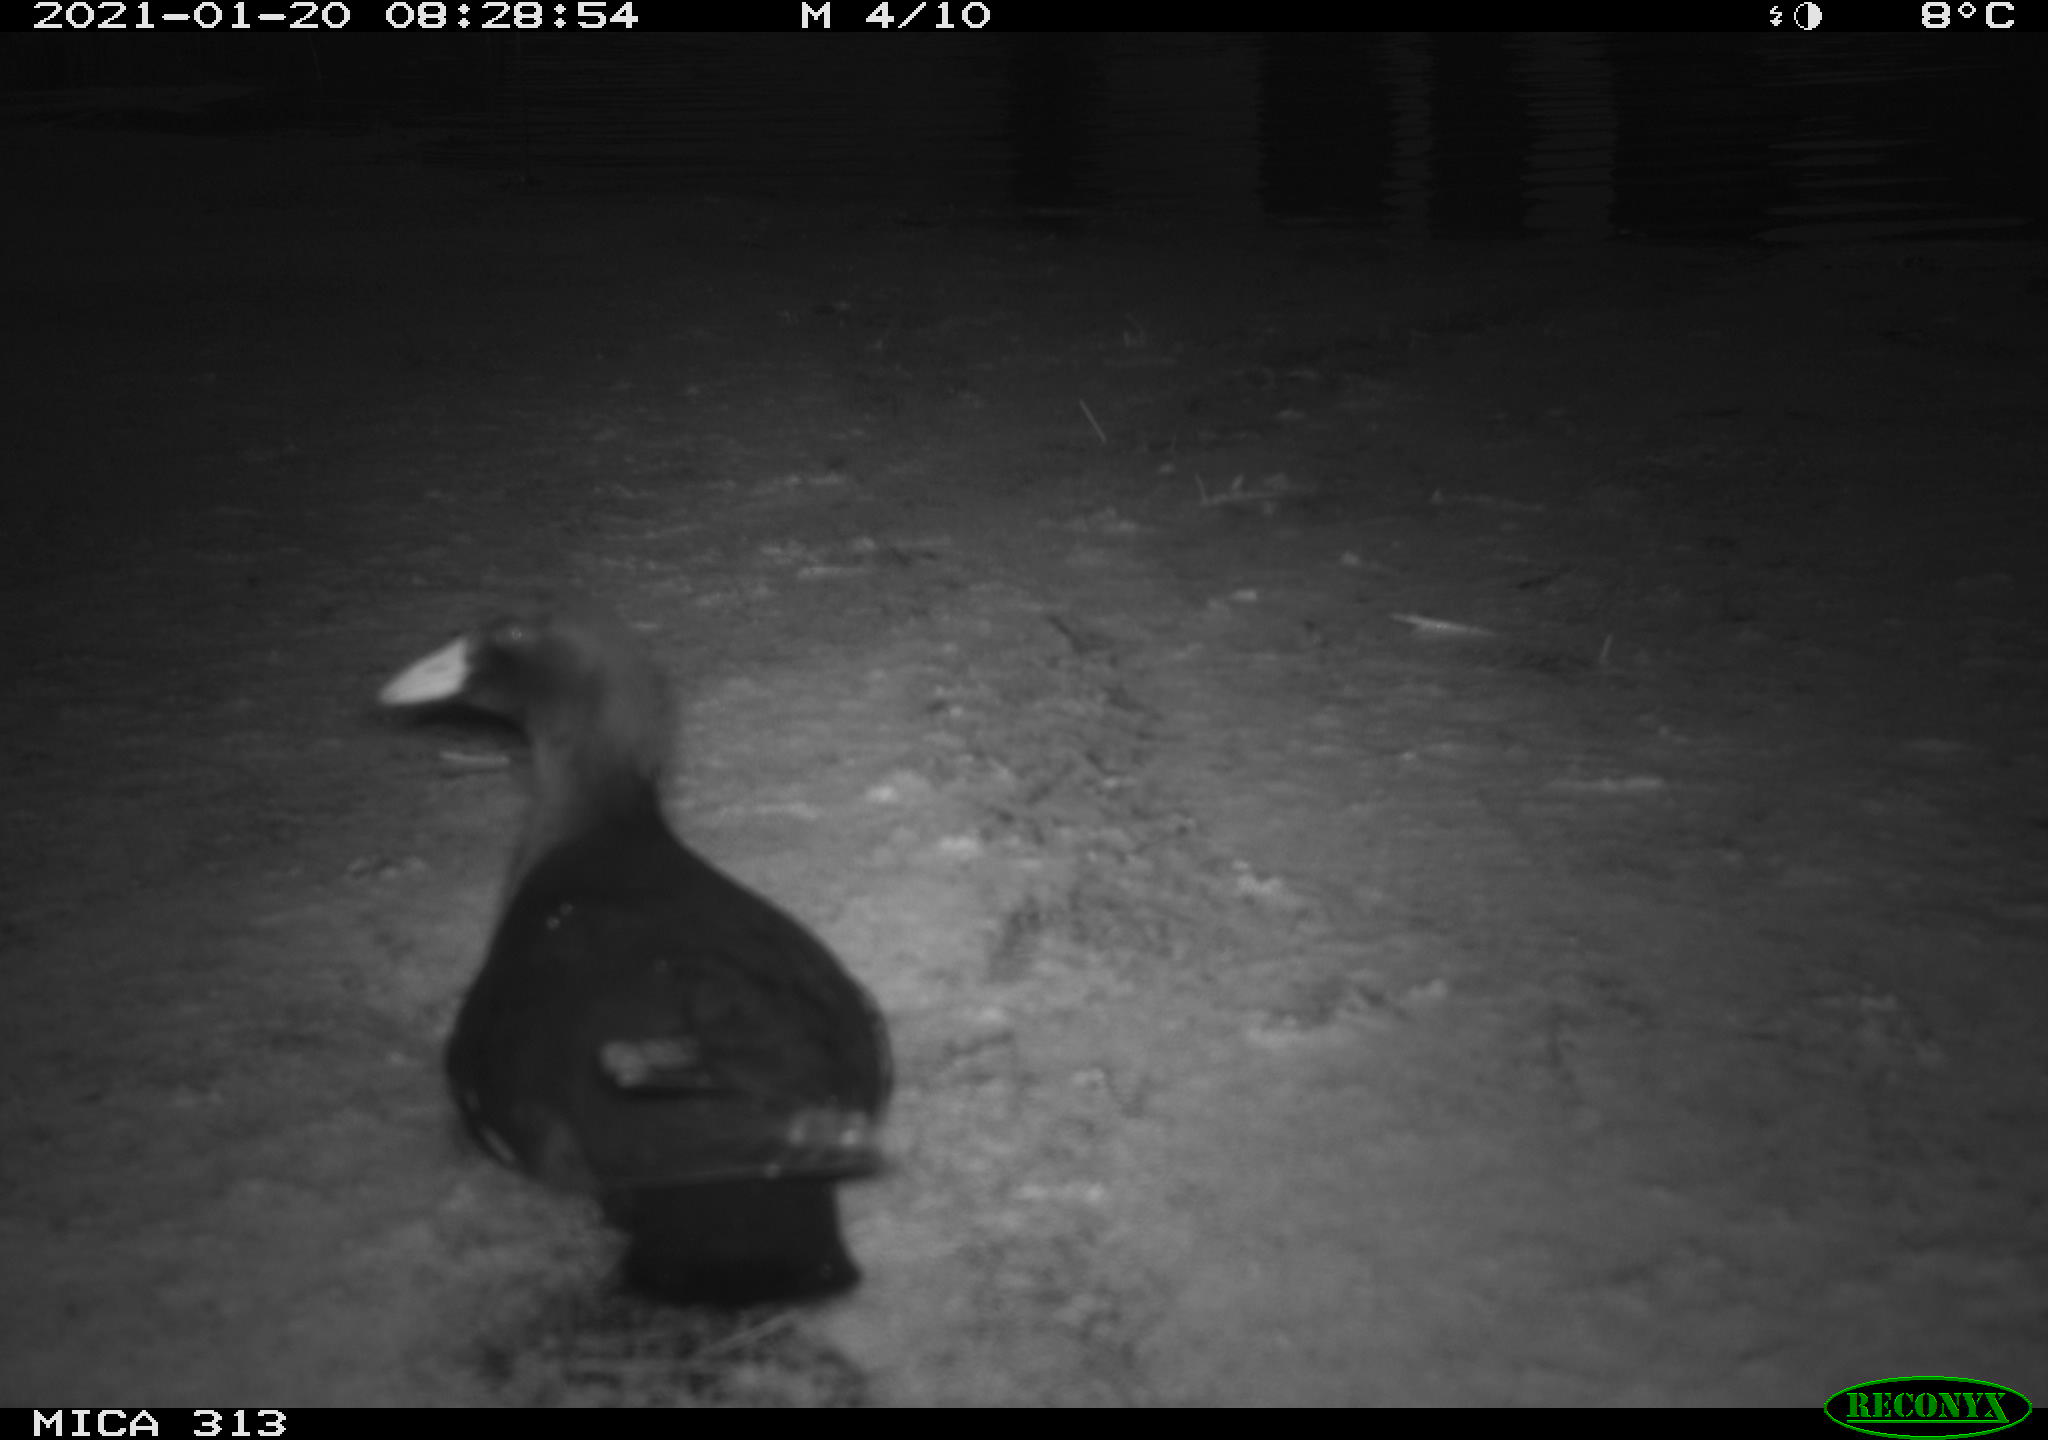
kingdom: Animalia
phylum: Chordata
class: Aves
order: Gruiformes
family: Rallidae
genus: Fulica
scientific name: Fulica atra
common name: Eurasian coot
